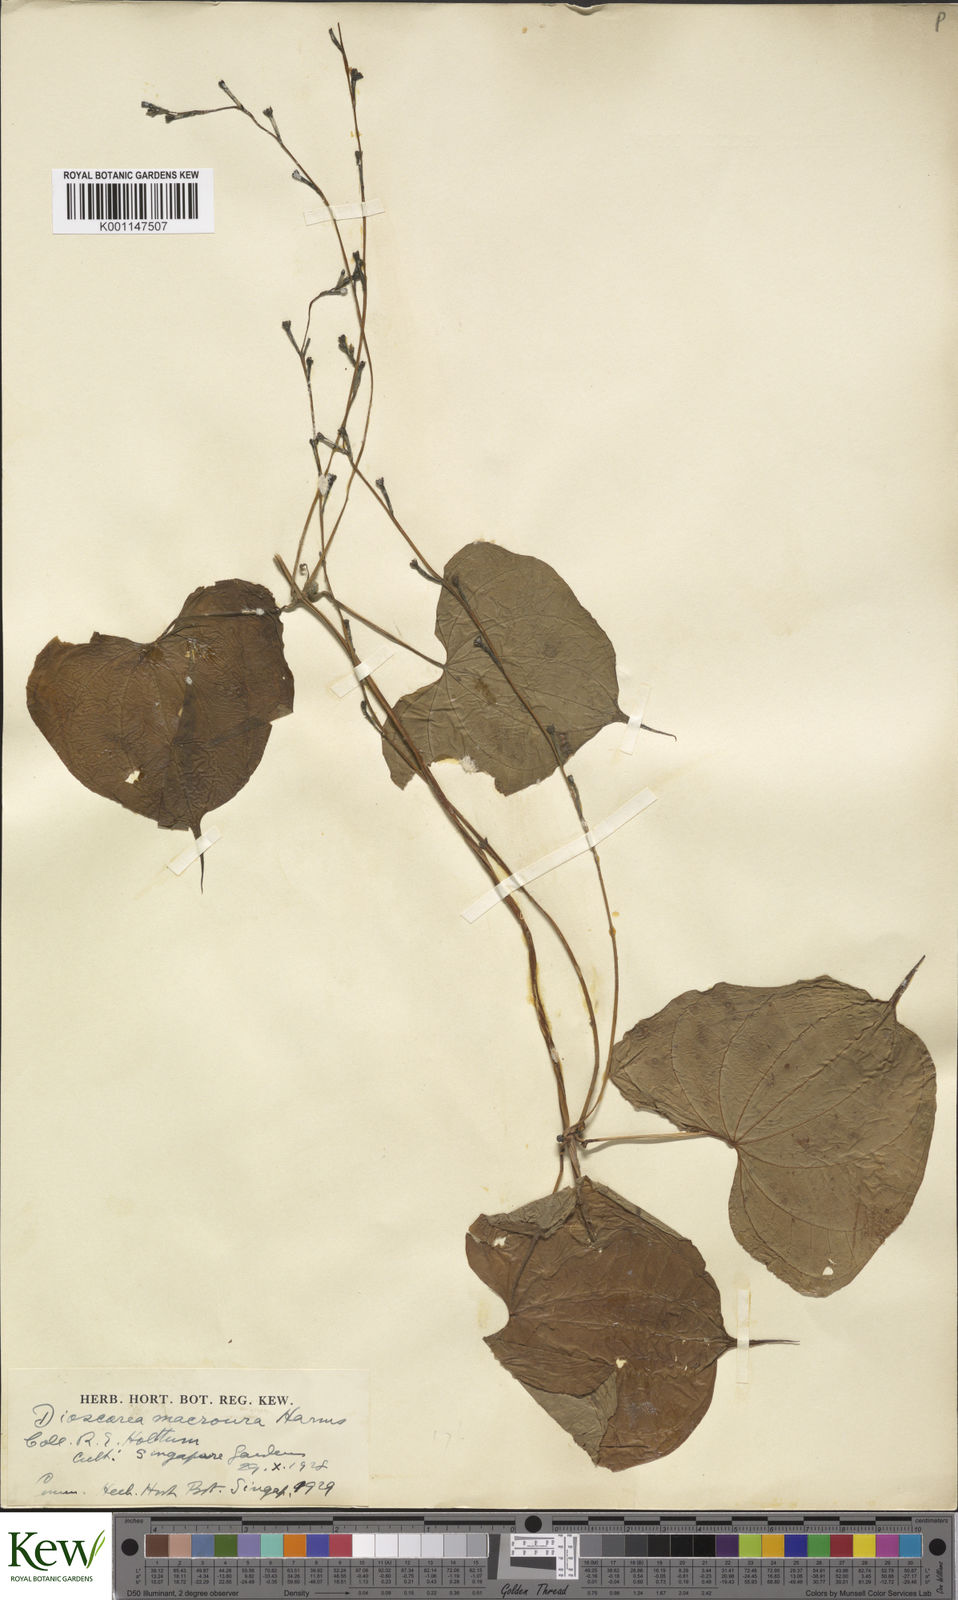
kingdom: Plantae
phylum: Tracheophyta
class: Liliopsida
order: Dioscoreales
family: Dioscoreaceae
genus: Dioscorea
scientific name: Dioscorea sansibarensis
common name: Zanzibar yam
